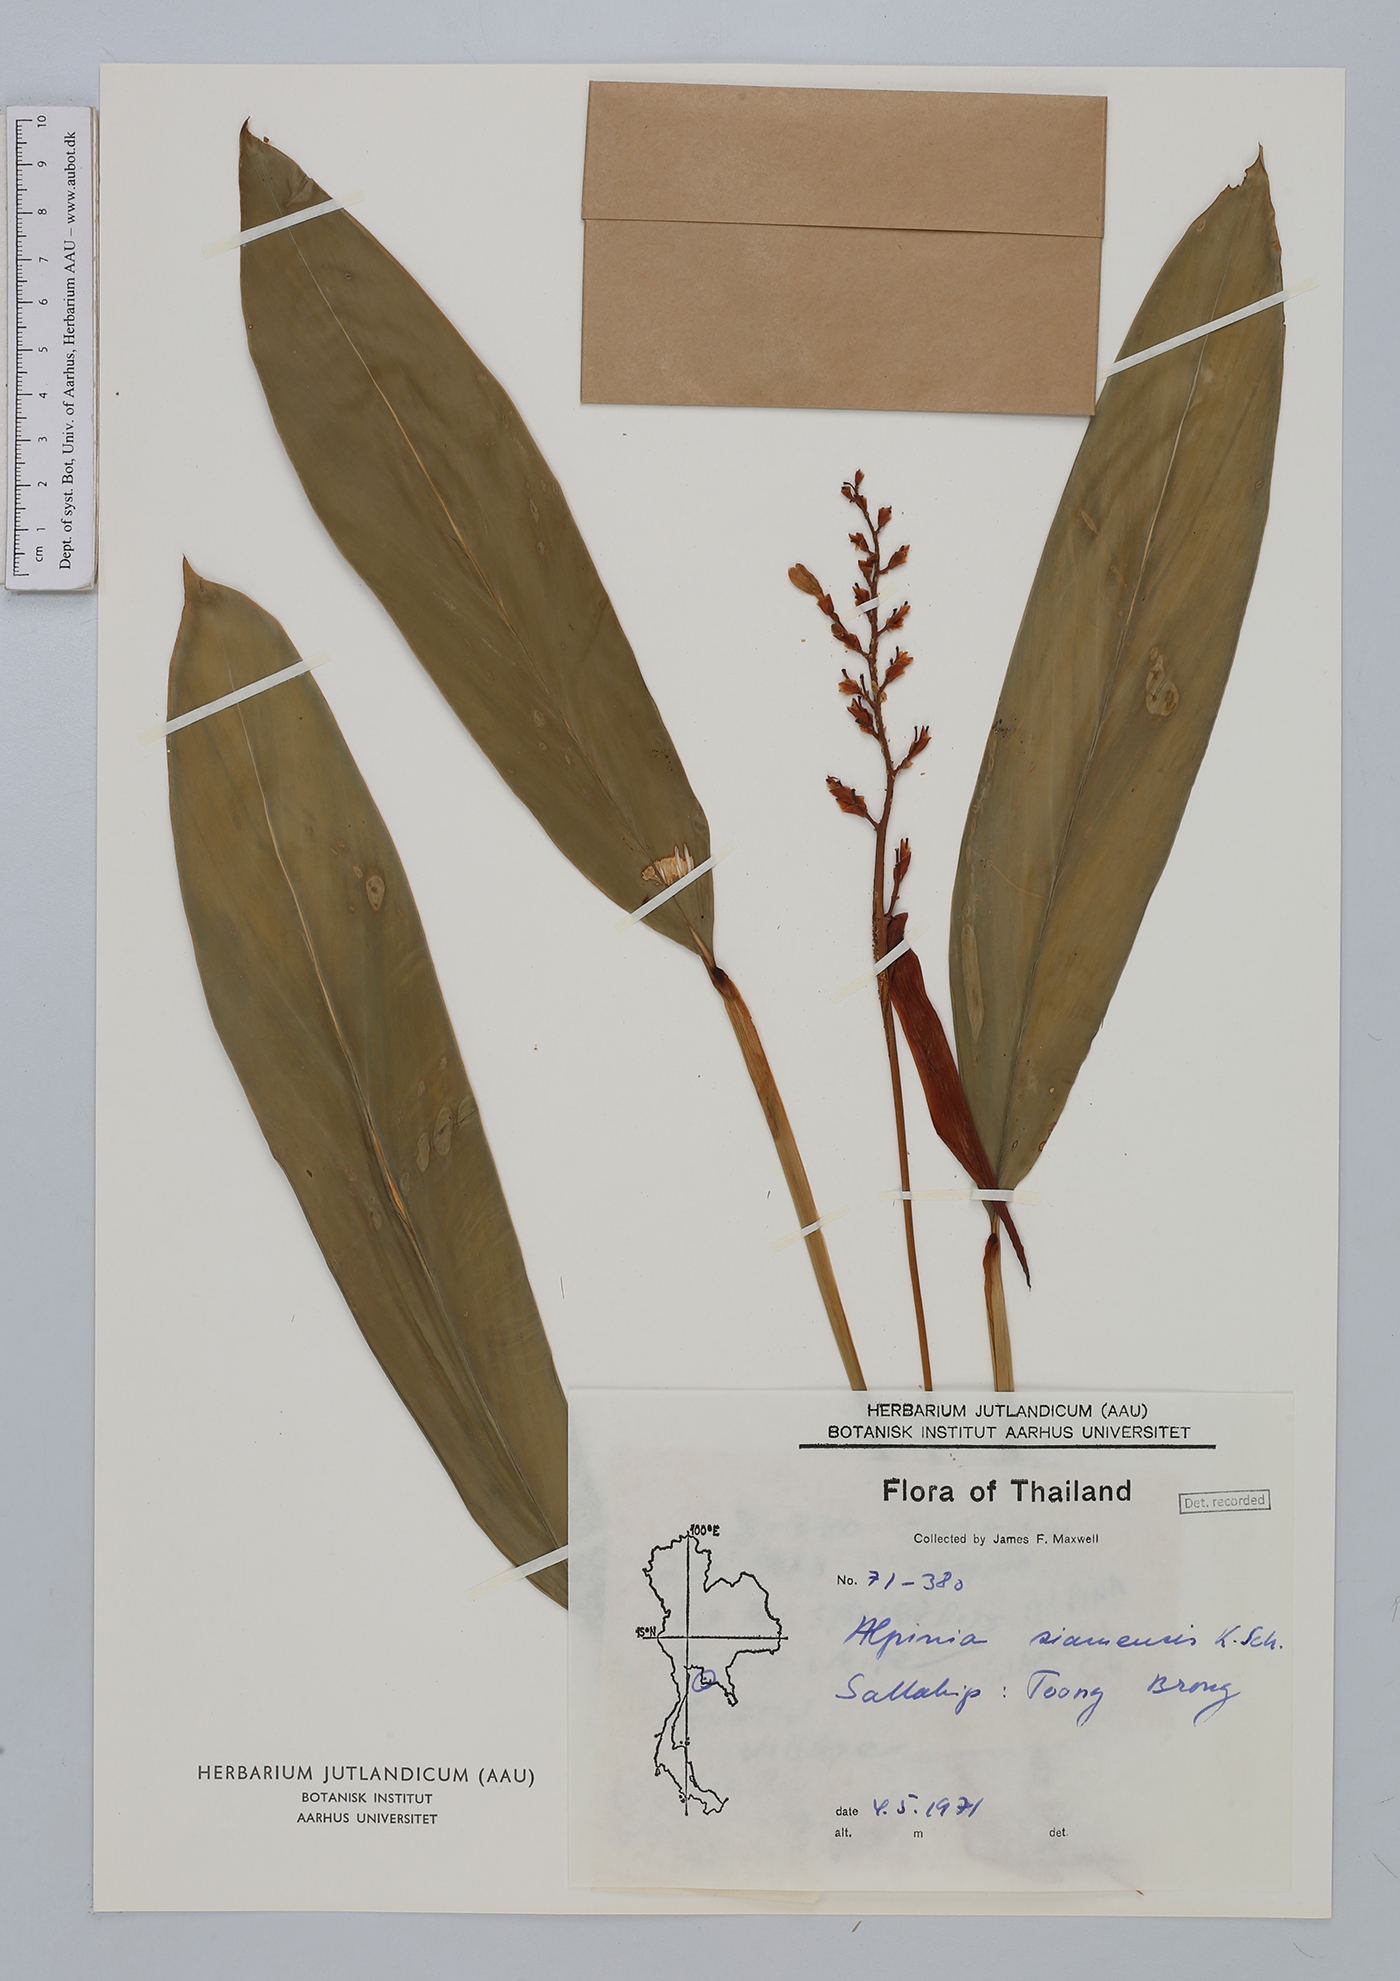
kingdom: Plantae
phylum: Tracheophyta
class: Liliopsida
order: Zingiberales
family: Zingiberaceae
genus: Alpinia
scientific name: Alpinia siamensis
